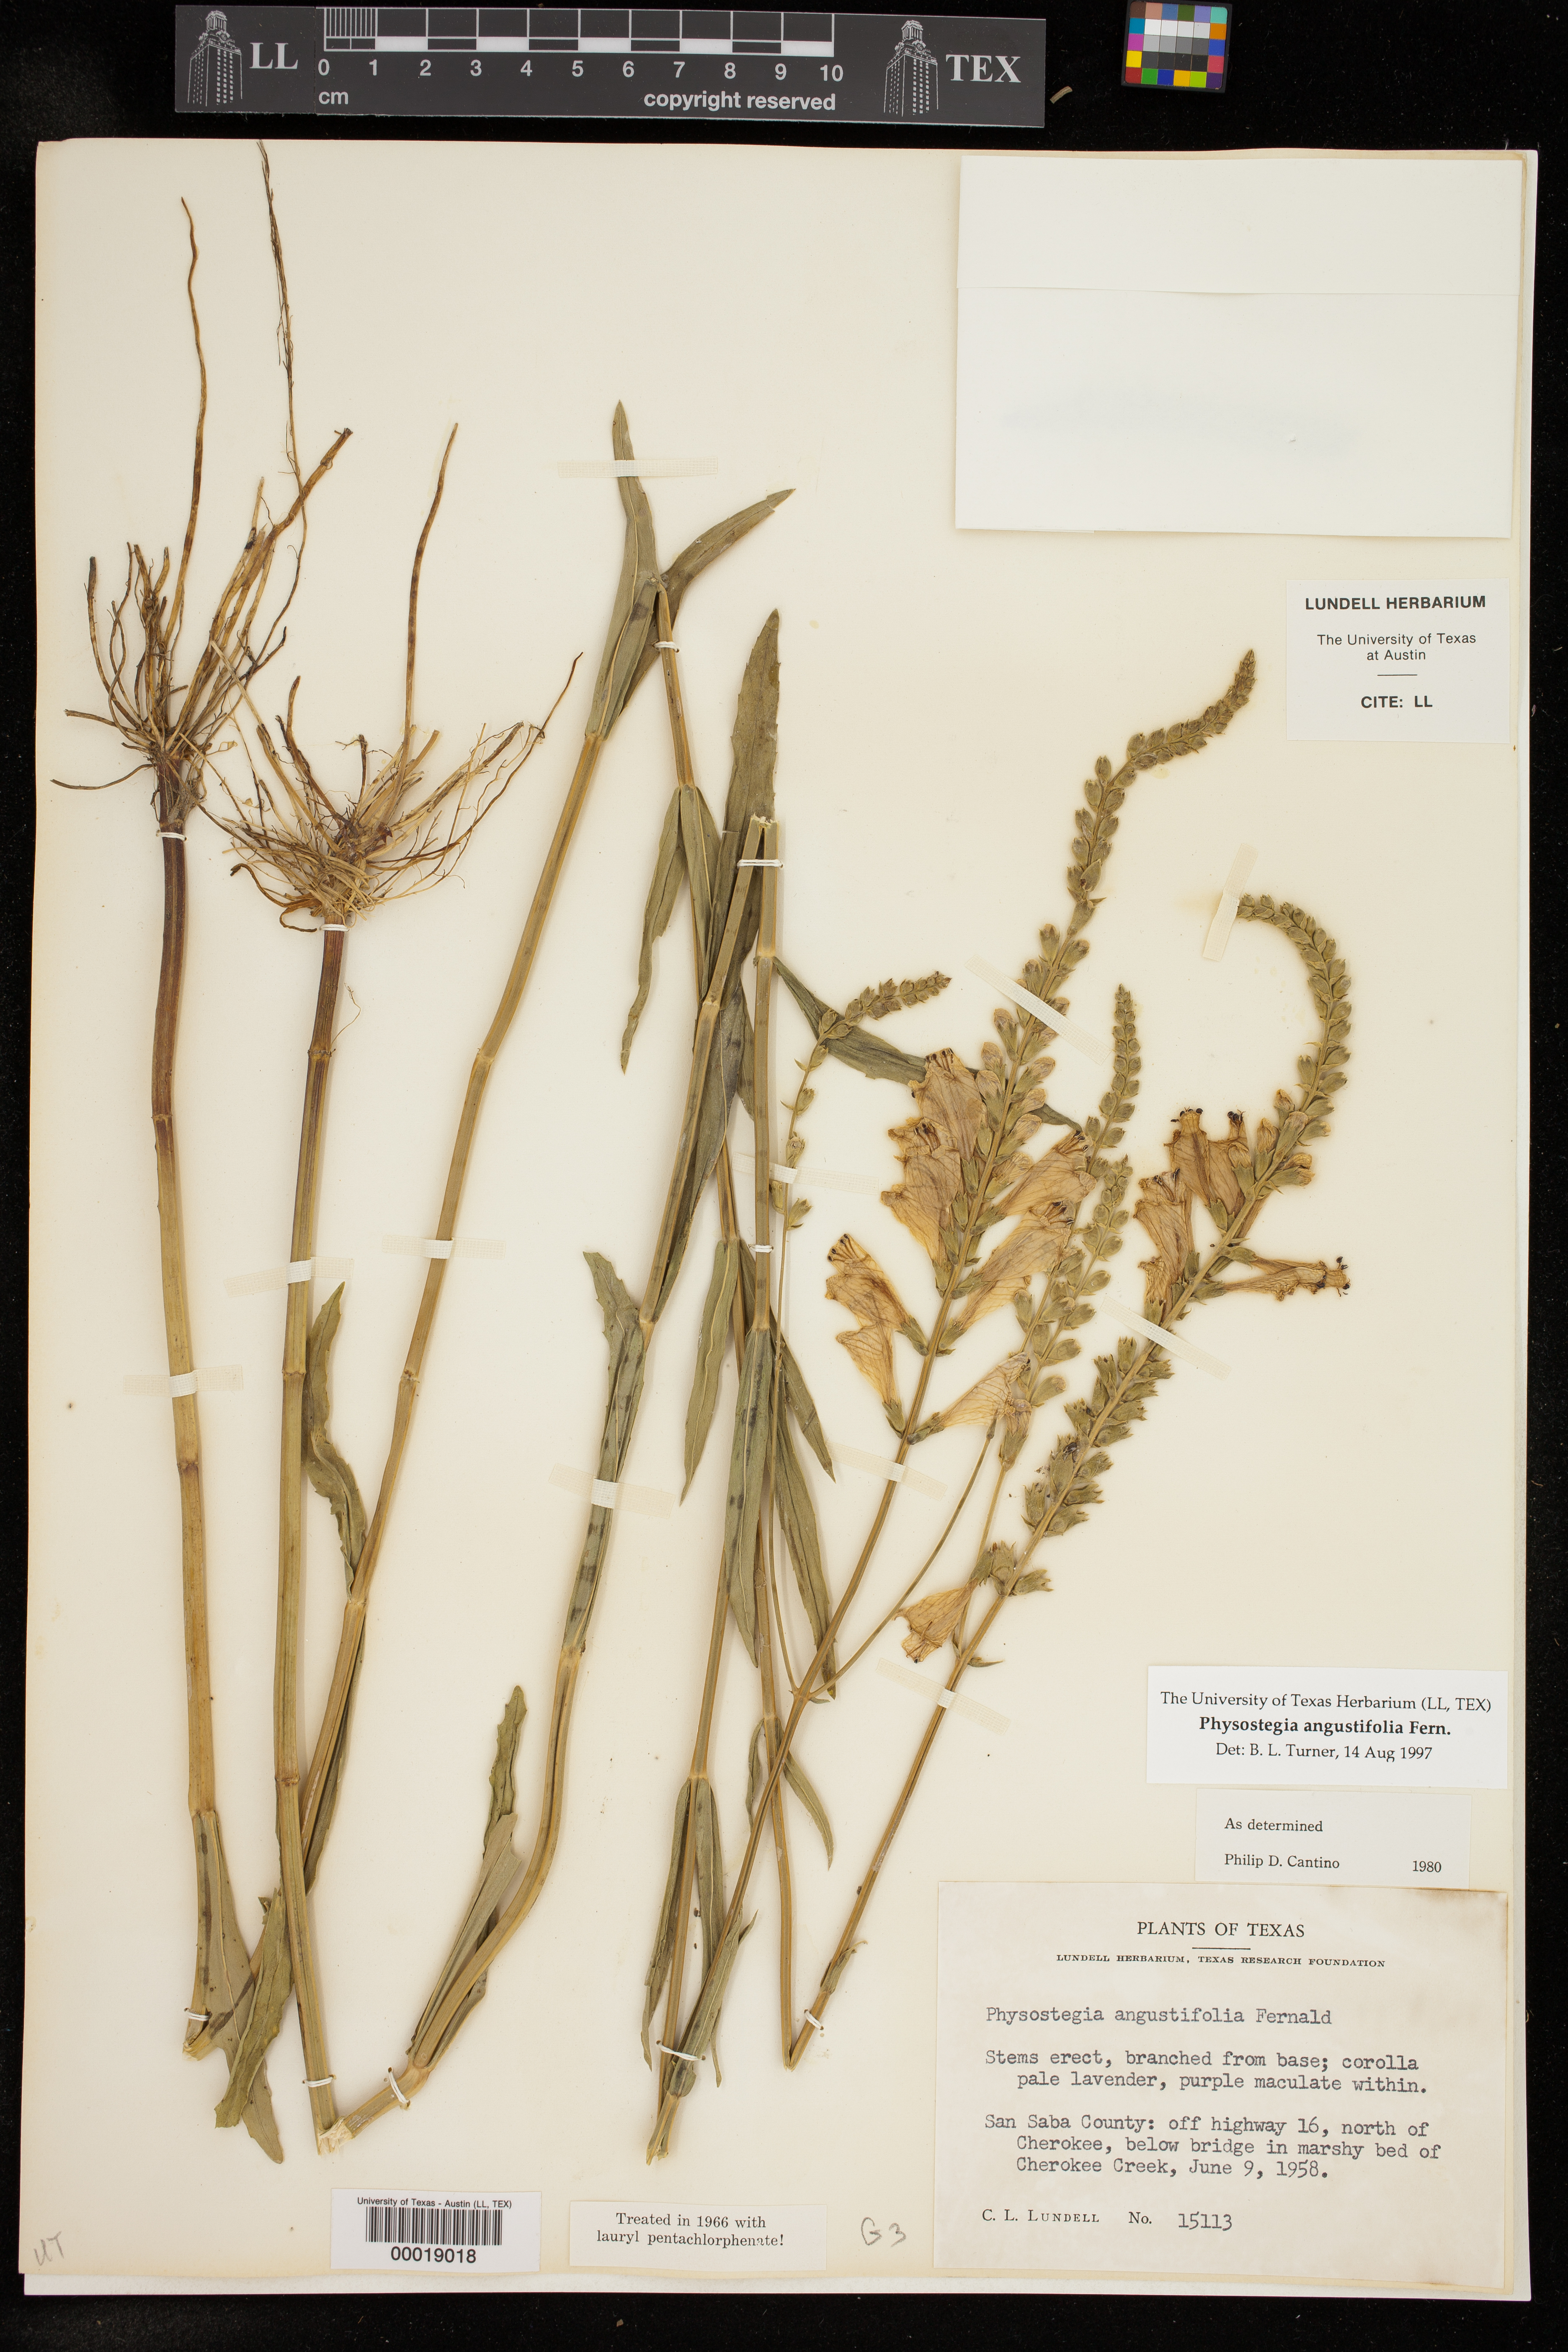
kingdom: Plantae
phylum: Tracheophyta
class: Magnoliopsida
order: Lamiales
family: Lamiaceae
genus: Physostegia
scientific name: Physostegia angustifolia
